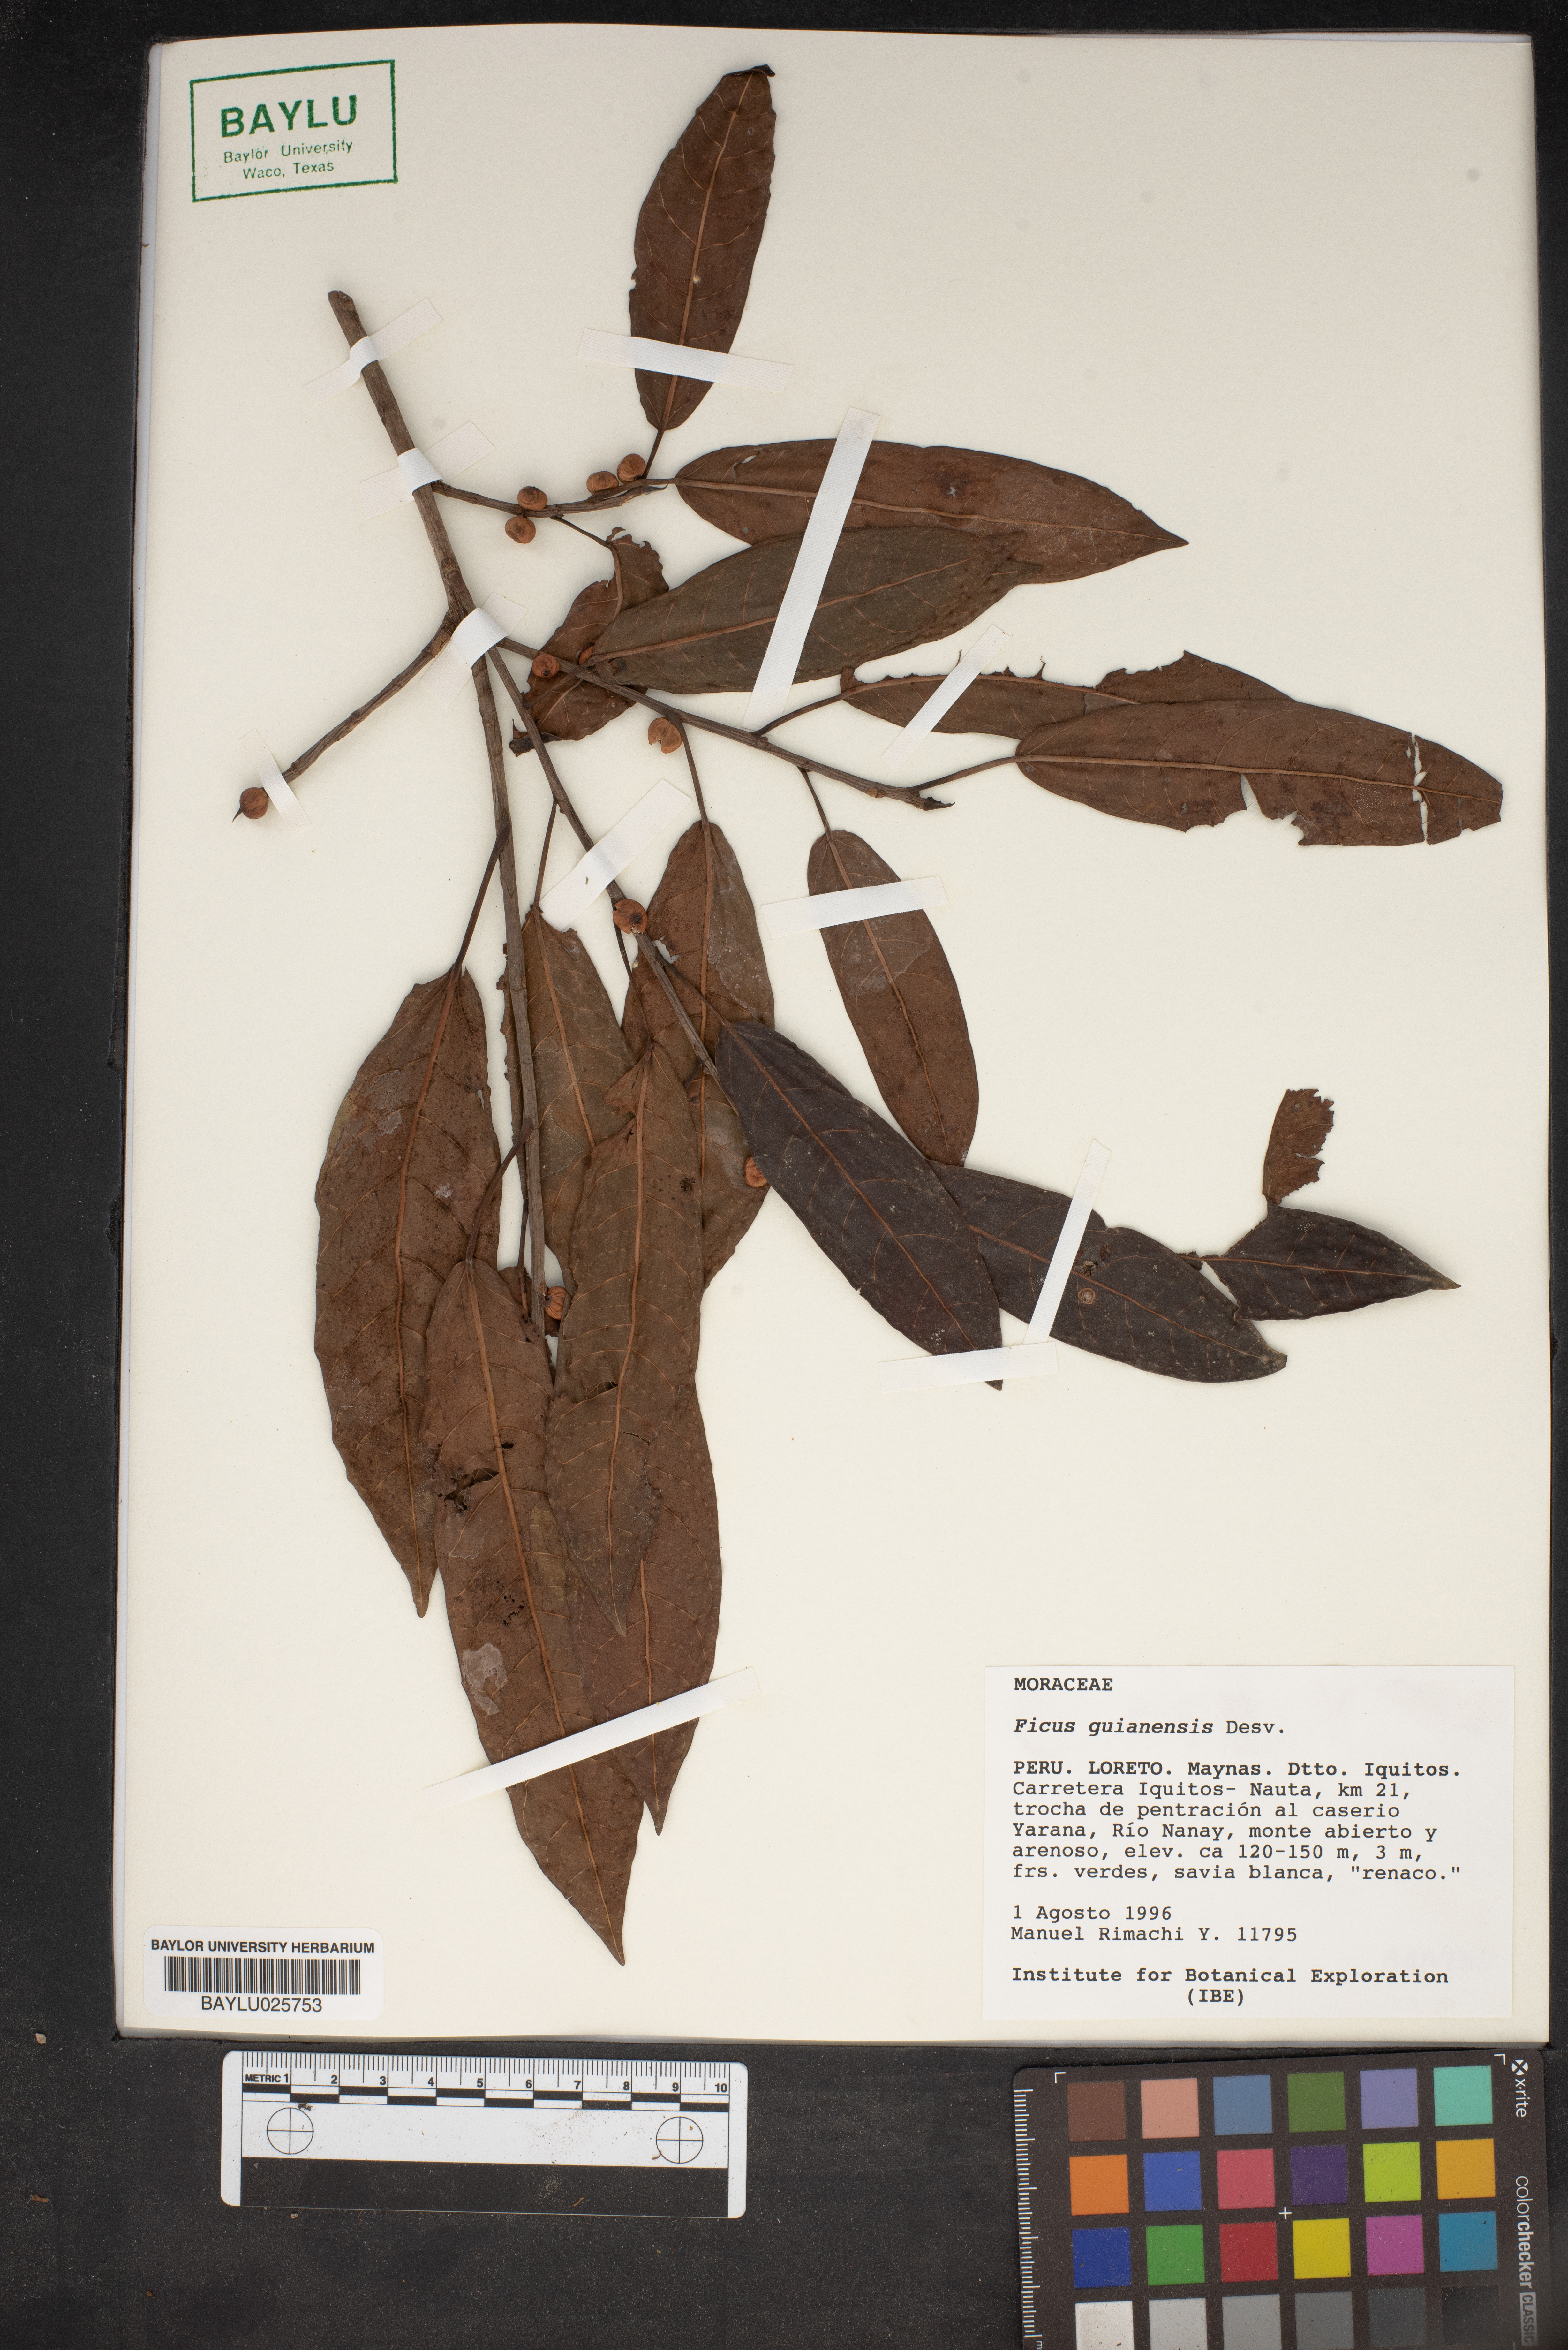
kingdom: Plantae
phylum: Tracheophyta
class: Magnoliopsida
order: Rosales
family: Moraceae
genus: Ficus
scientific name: Ficus americana
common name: Jamaican cherry fig
